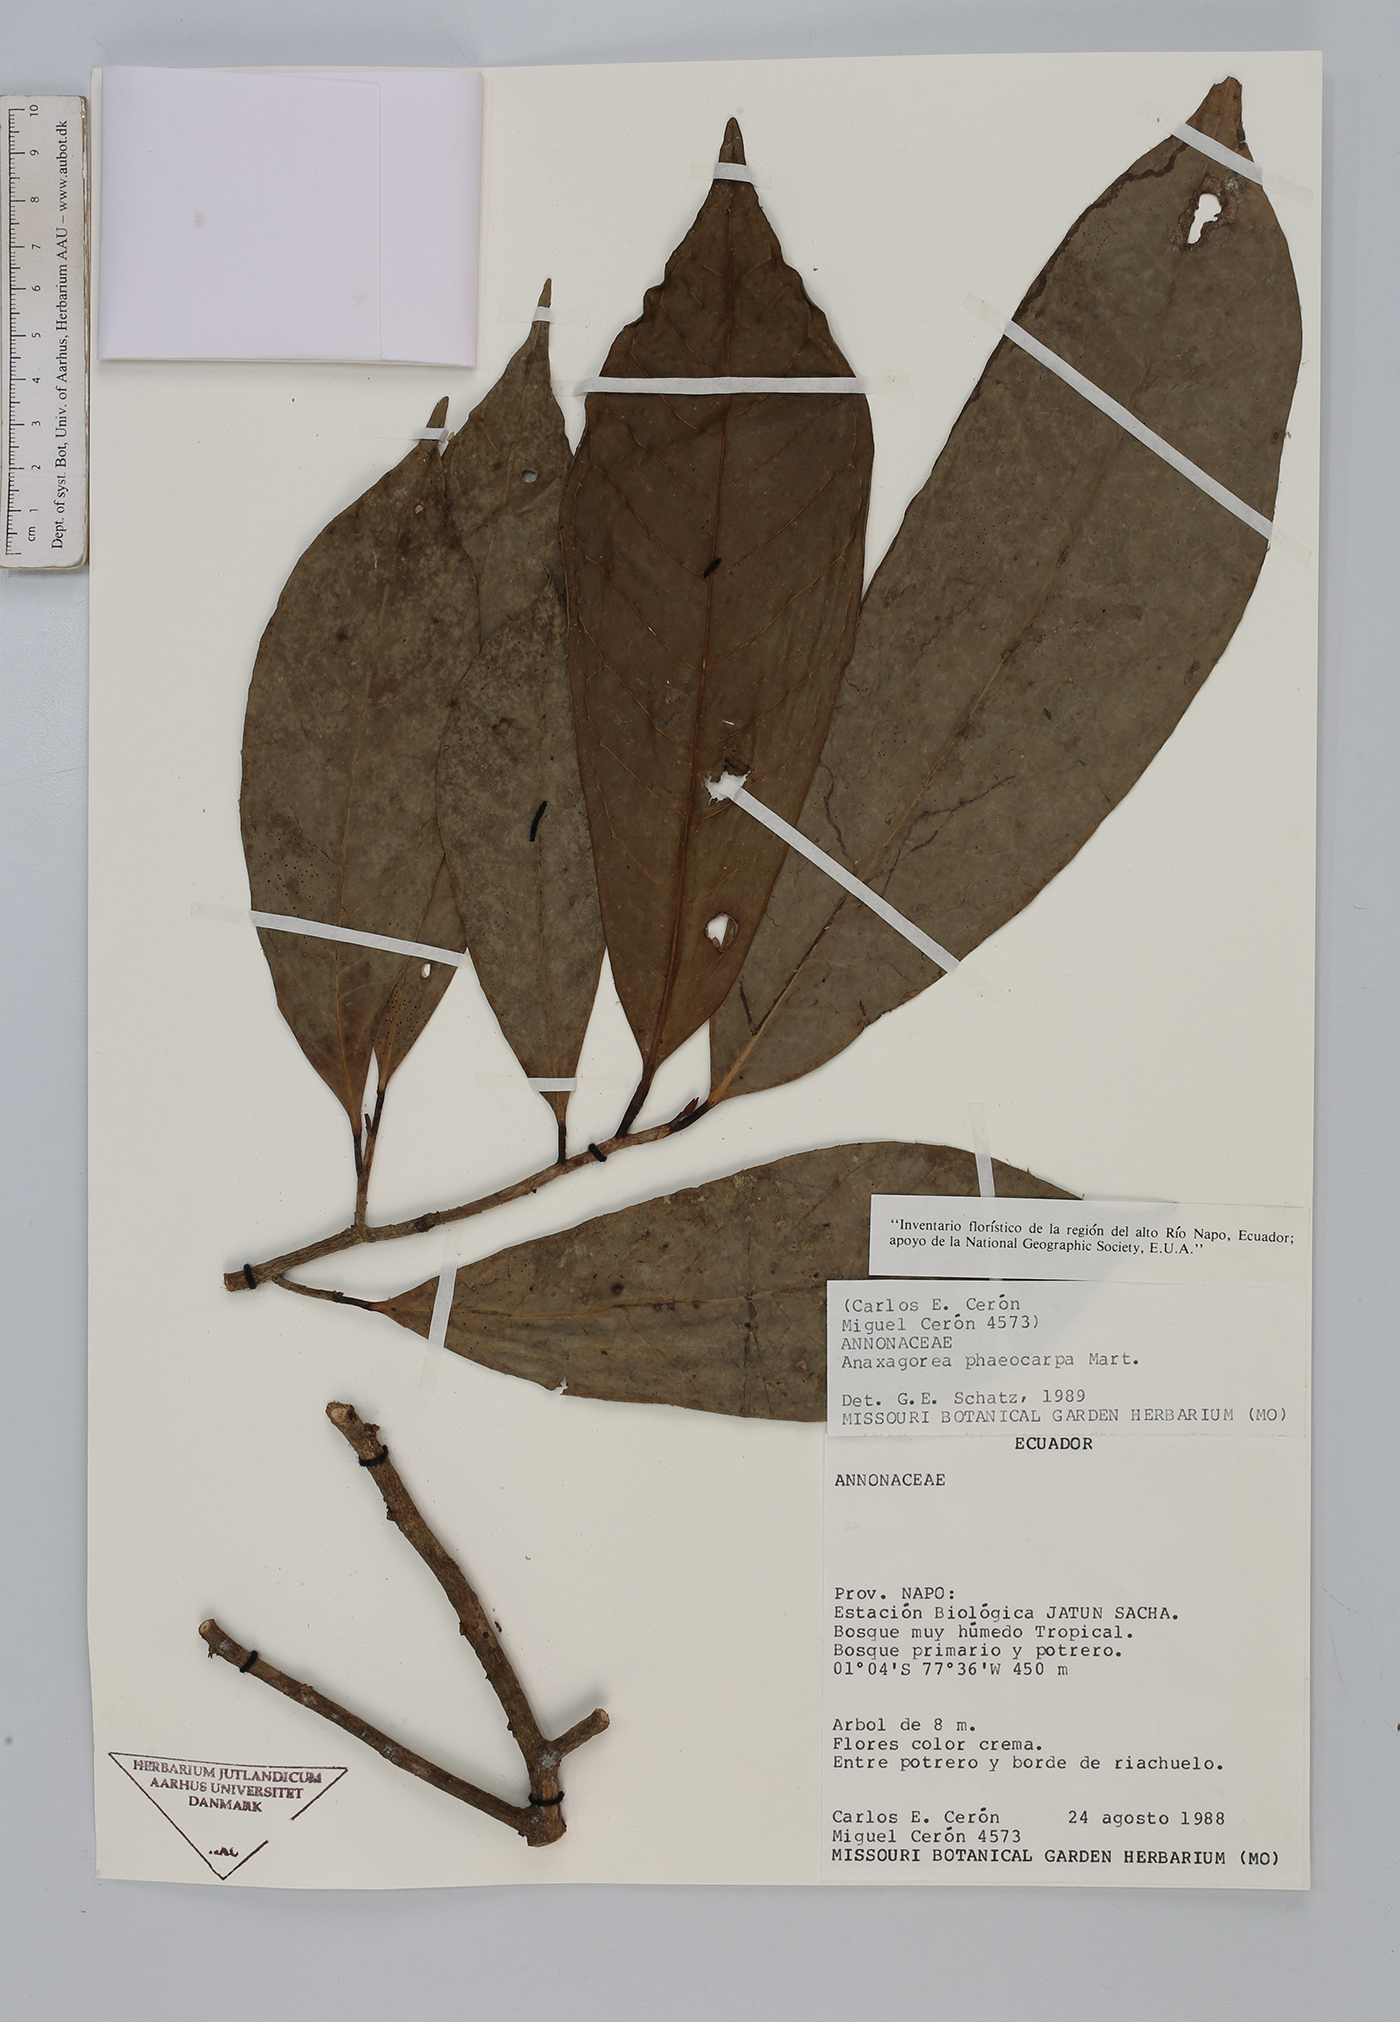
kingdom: Plantae
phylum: Tracheophyta
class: Magnoliopsida
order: Magnoliales
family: Annonaceae
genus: Anaxagorea
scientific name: Anaxagorea phaeocarpa
